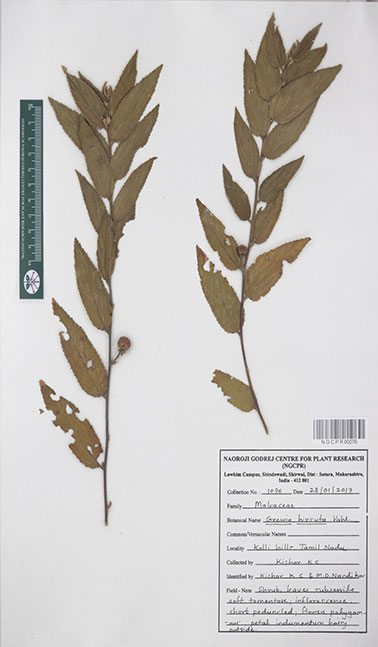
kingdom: Plantae
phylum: Tracheophyta
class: Magnoliopsida
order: Malvales
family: Malvaceae
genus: Grewia
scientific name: Grewia hirsuta
